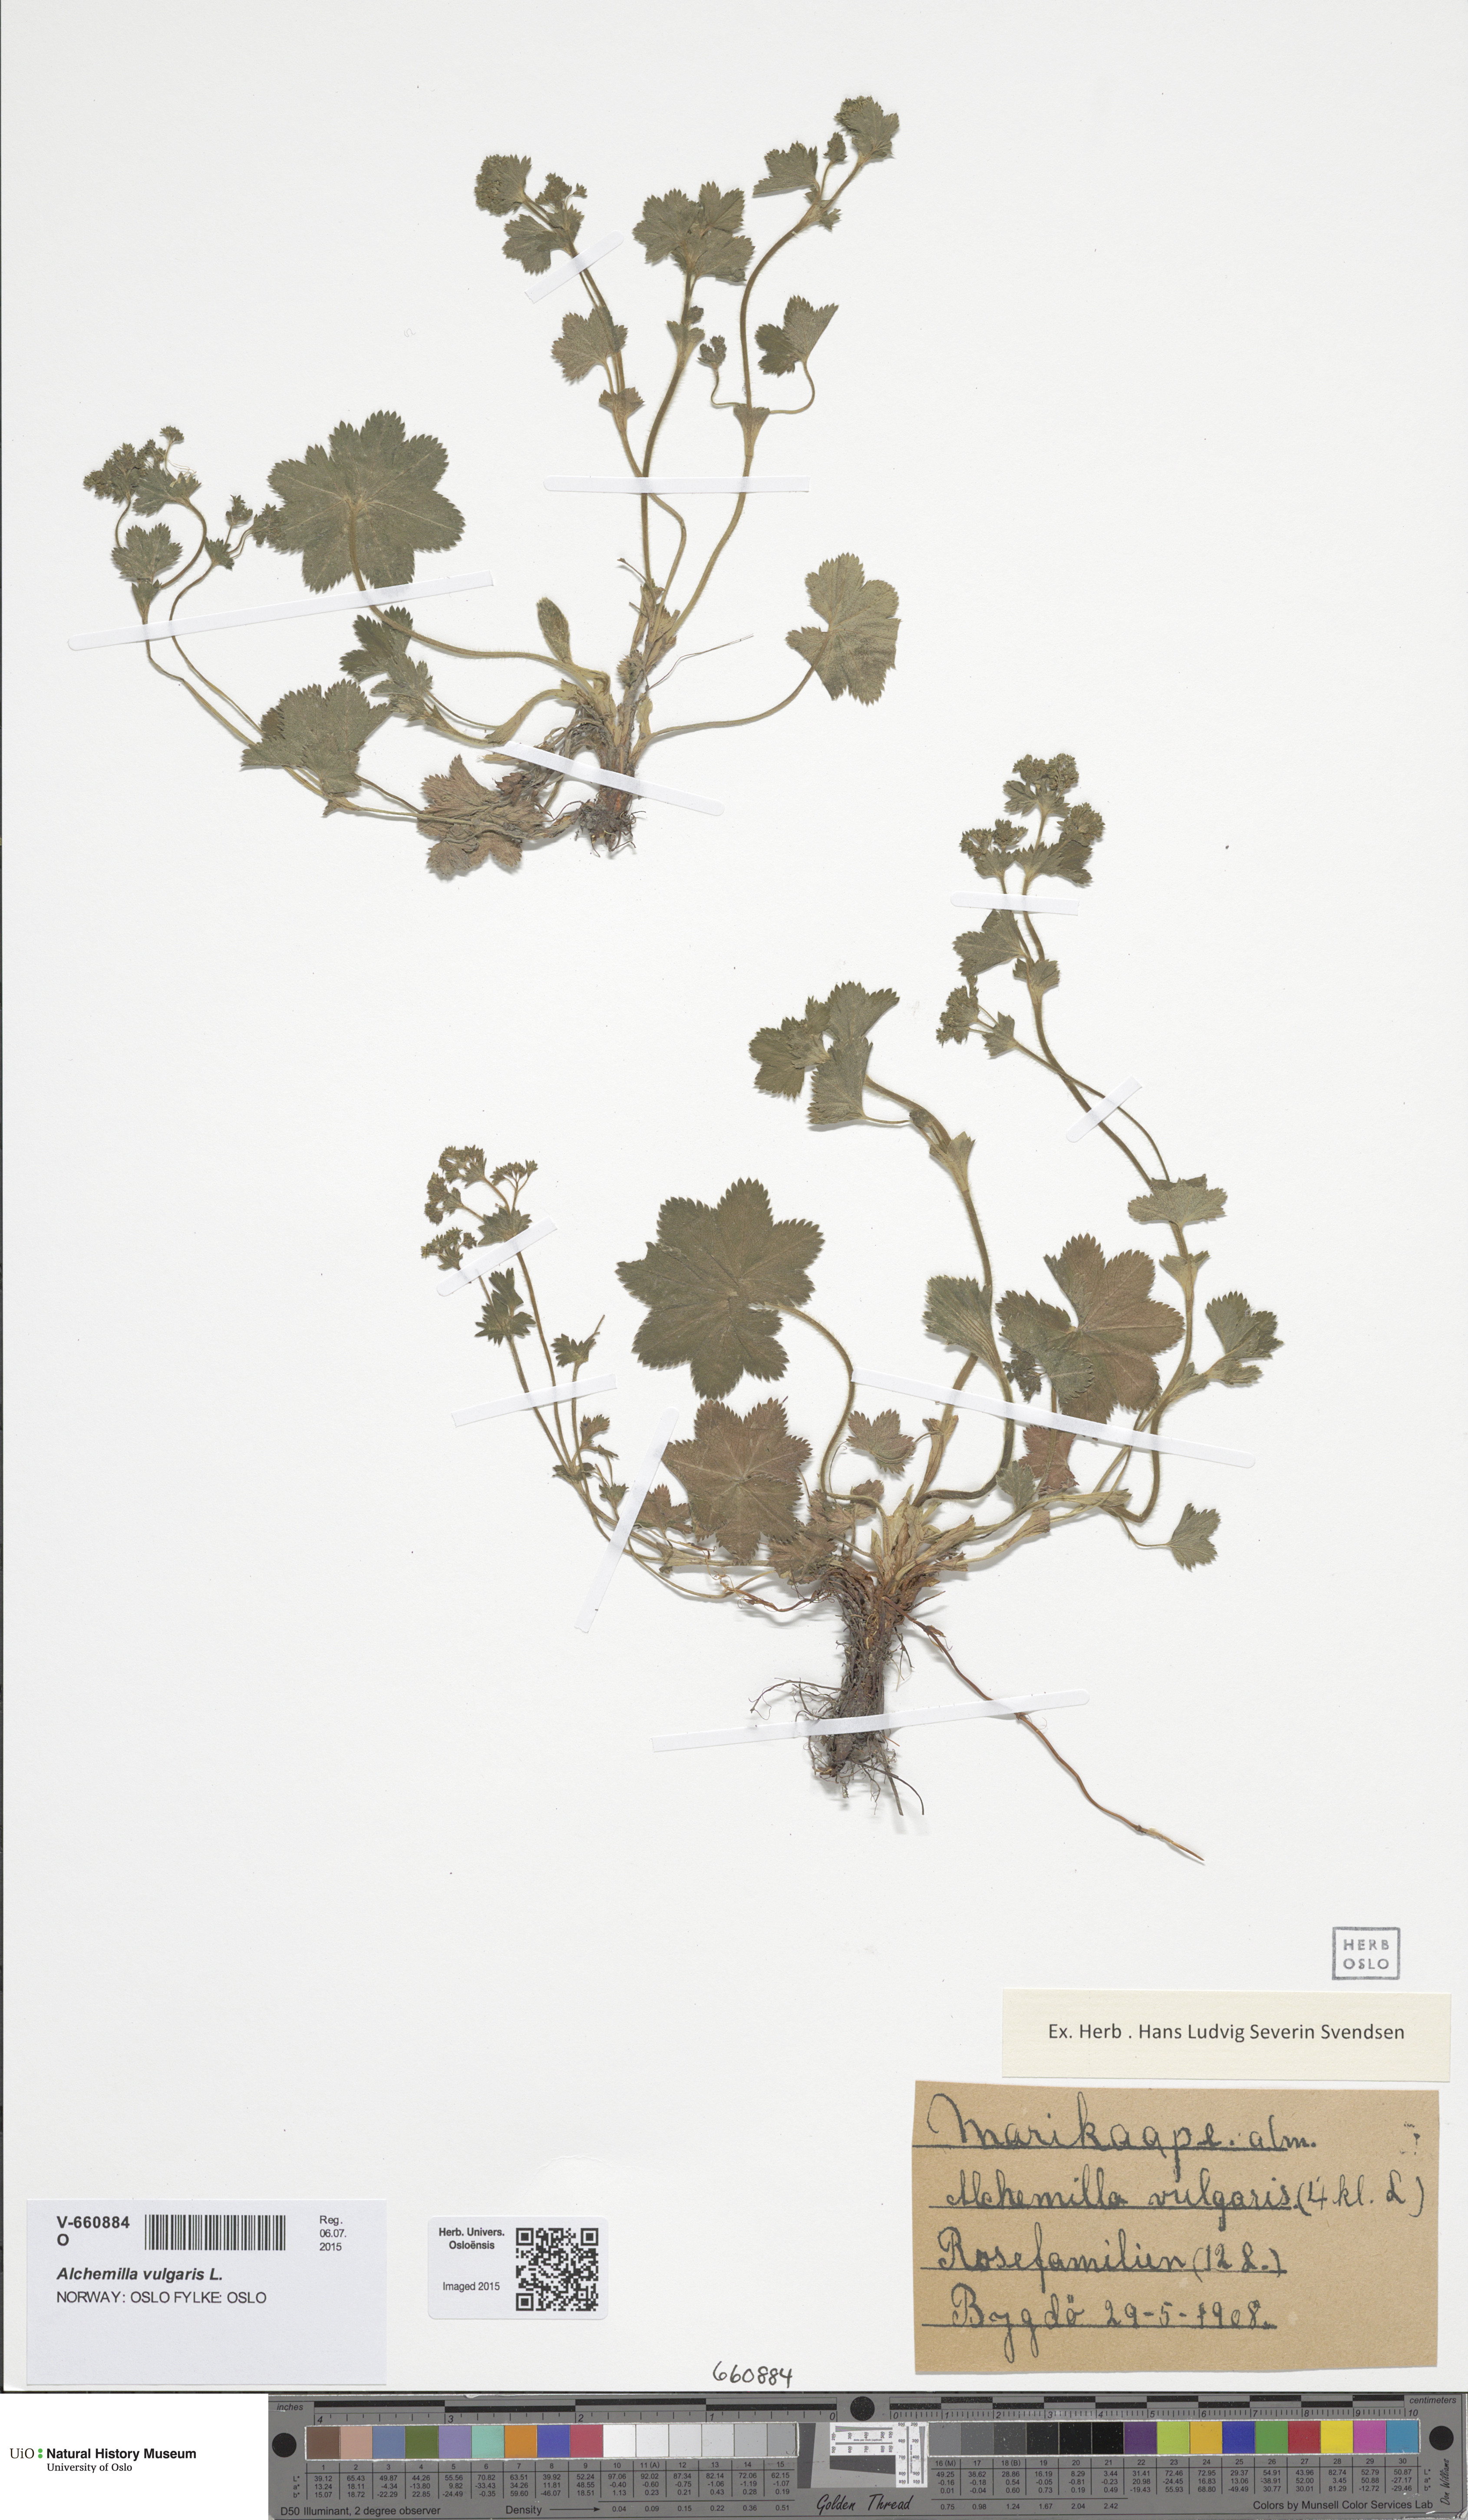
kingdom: Plantae
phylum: Tracheophyta
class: Magnoliopsida
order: Rosales
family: Rosaceae
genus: Alchemilla
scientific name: Alchemilla micans
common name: Gleaming lady's mantle
